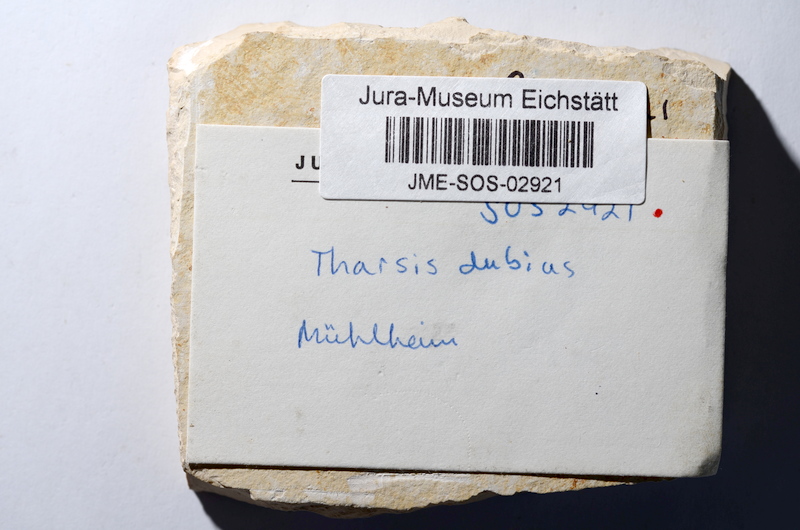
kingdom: Animalia
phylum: Chordata
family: Ascalaboidae
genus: Tharsis
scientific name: Tharsis dubius
